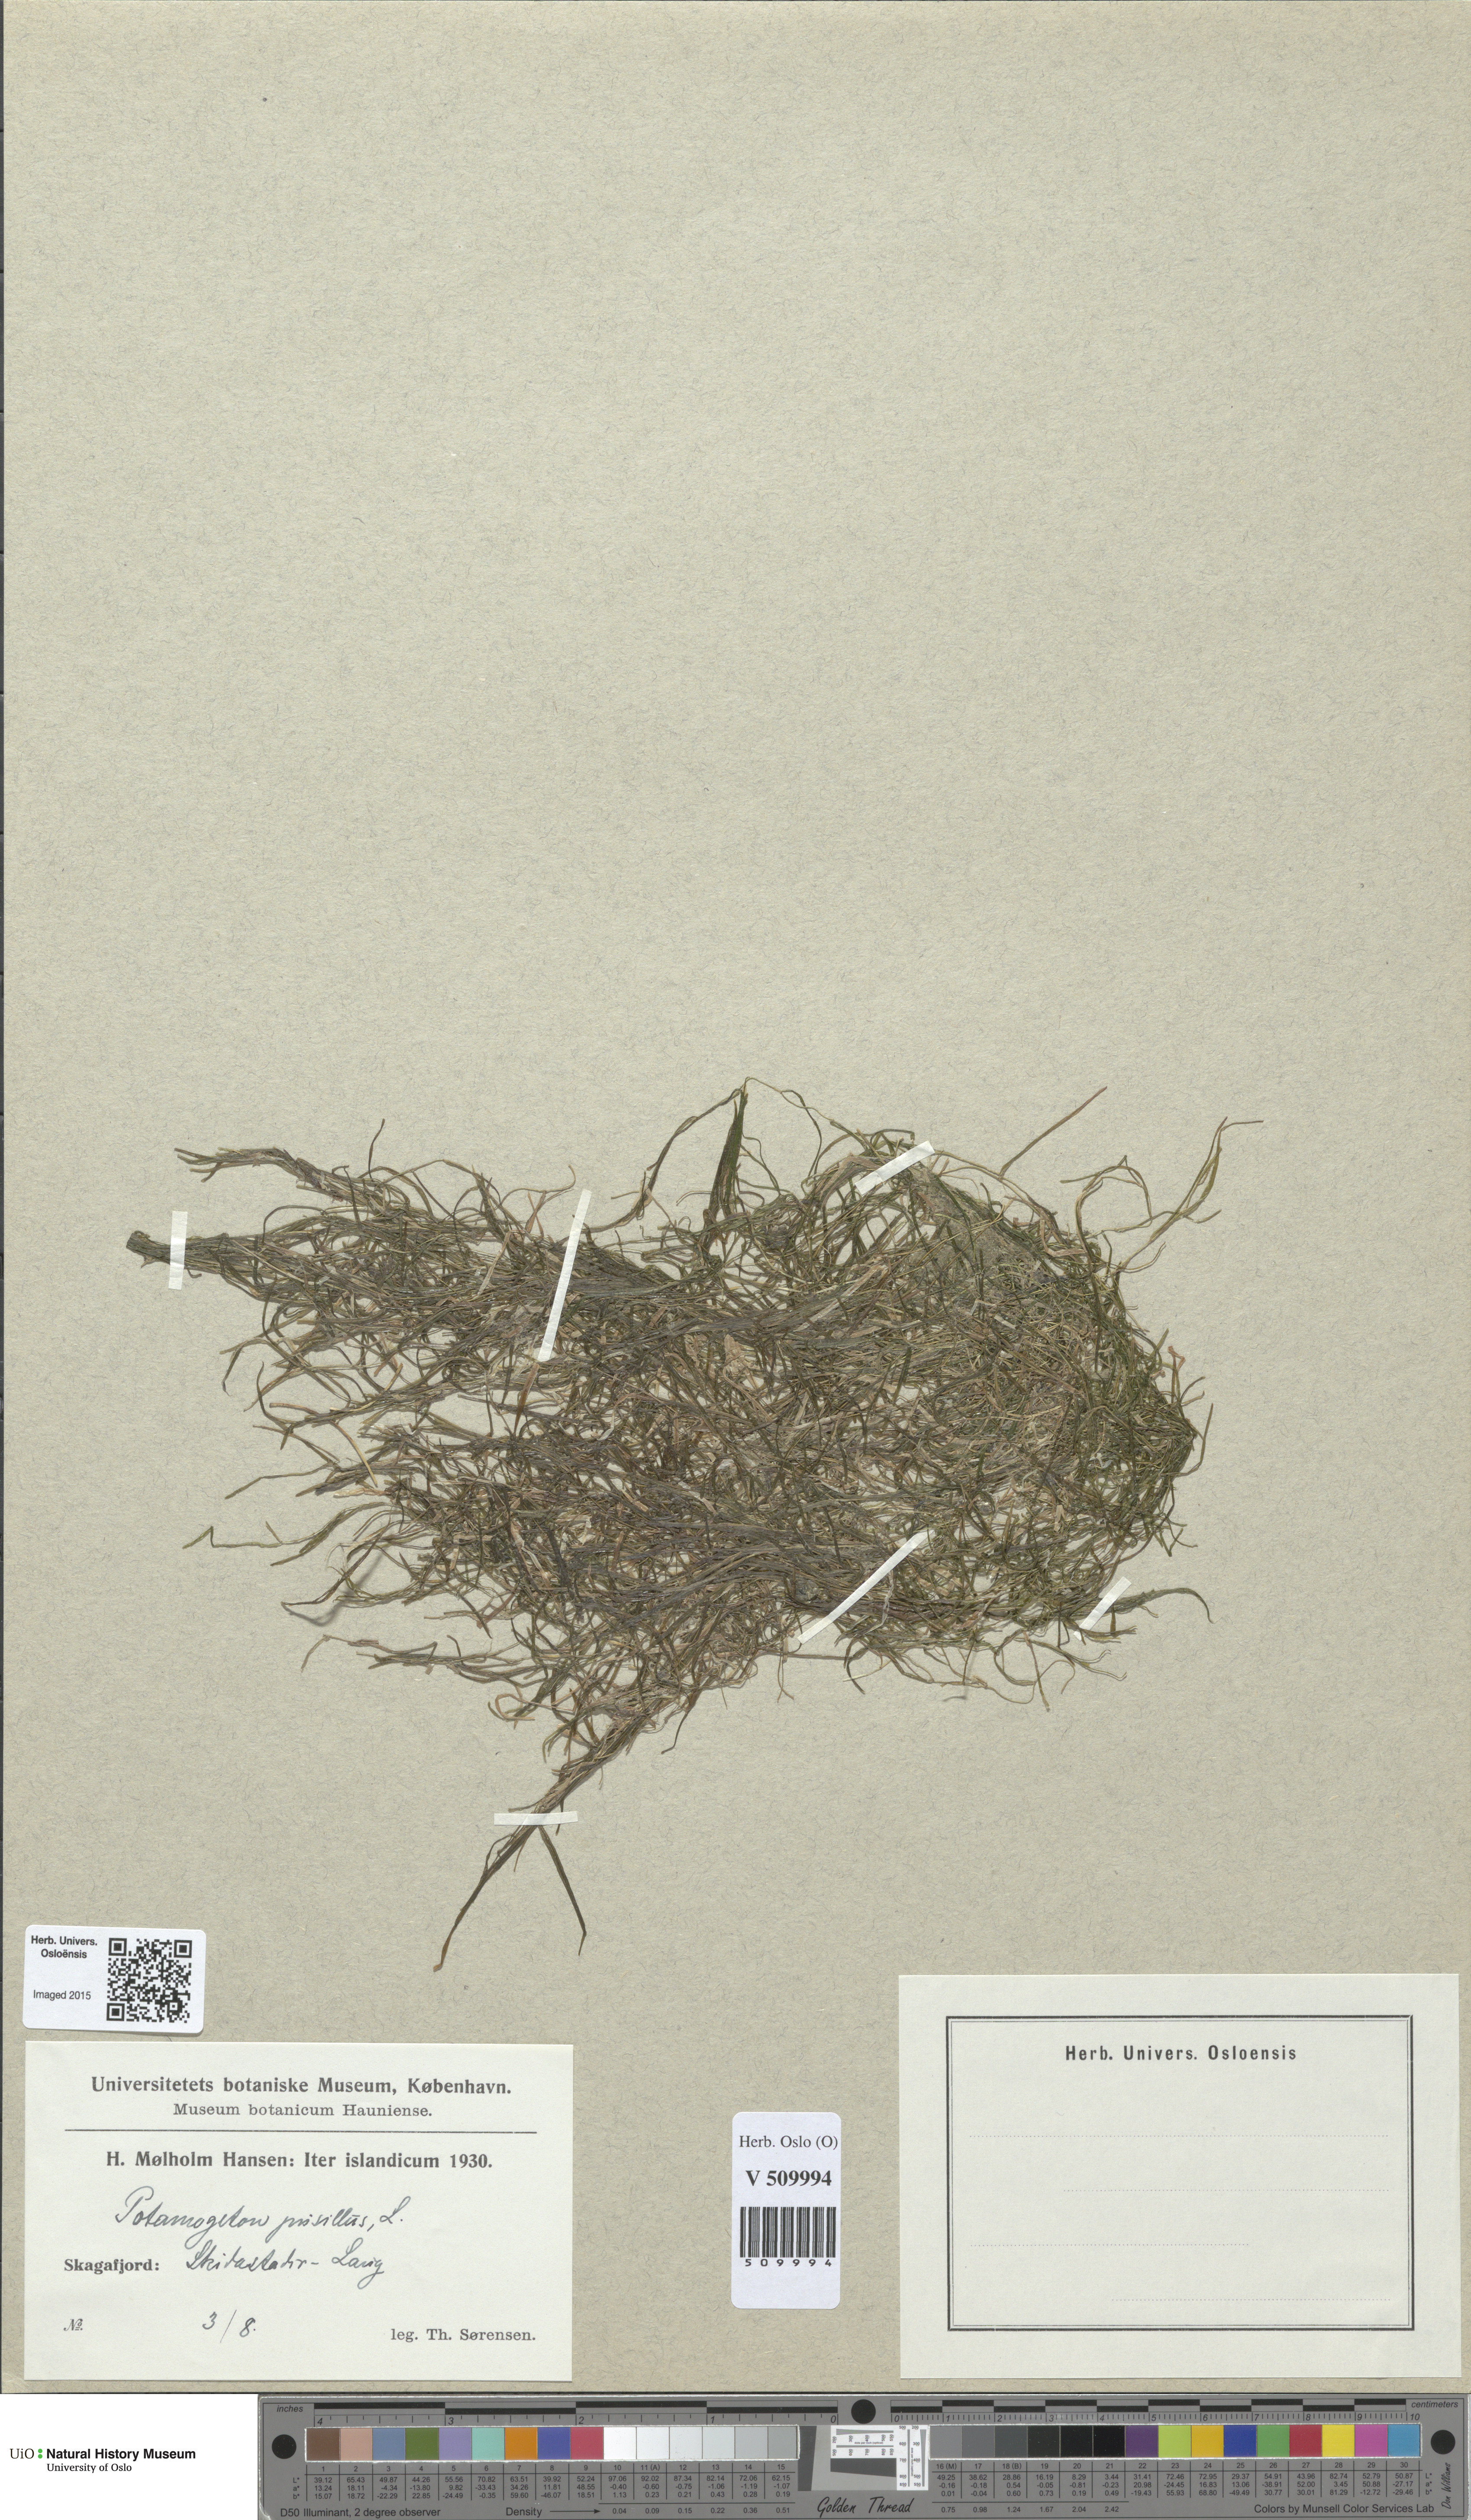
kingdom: Plantae
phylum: Tracheophyta
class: Liliopsida
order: Alismatales
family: Potamogetonaceae
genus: Potamogeton
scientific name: Potamogeton berchtoldii
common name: Small pondweed
